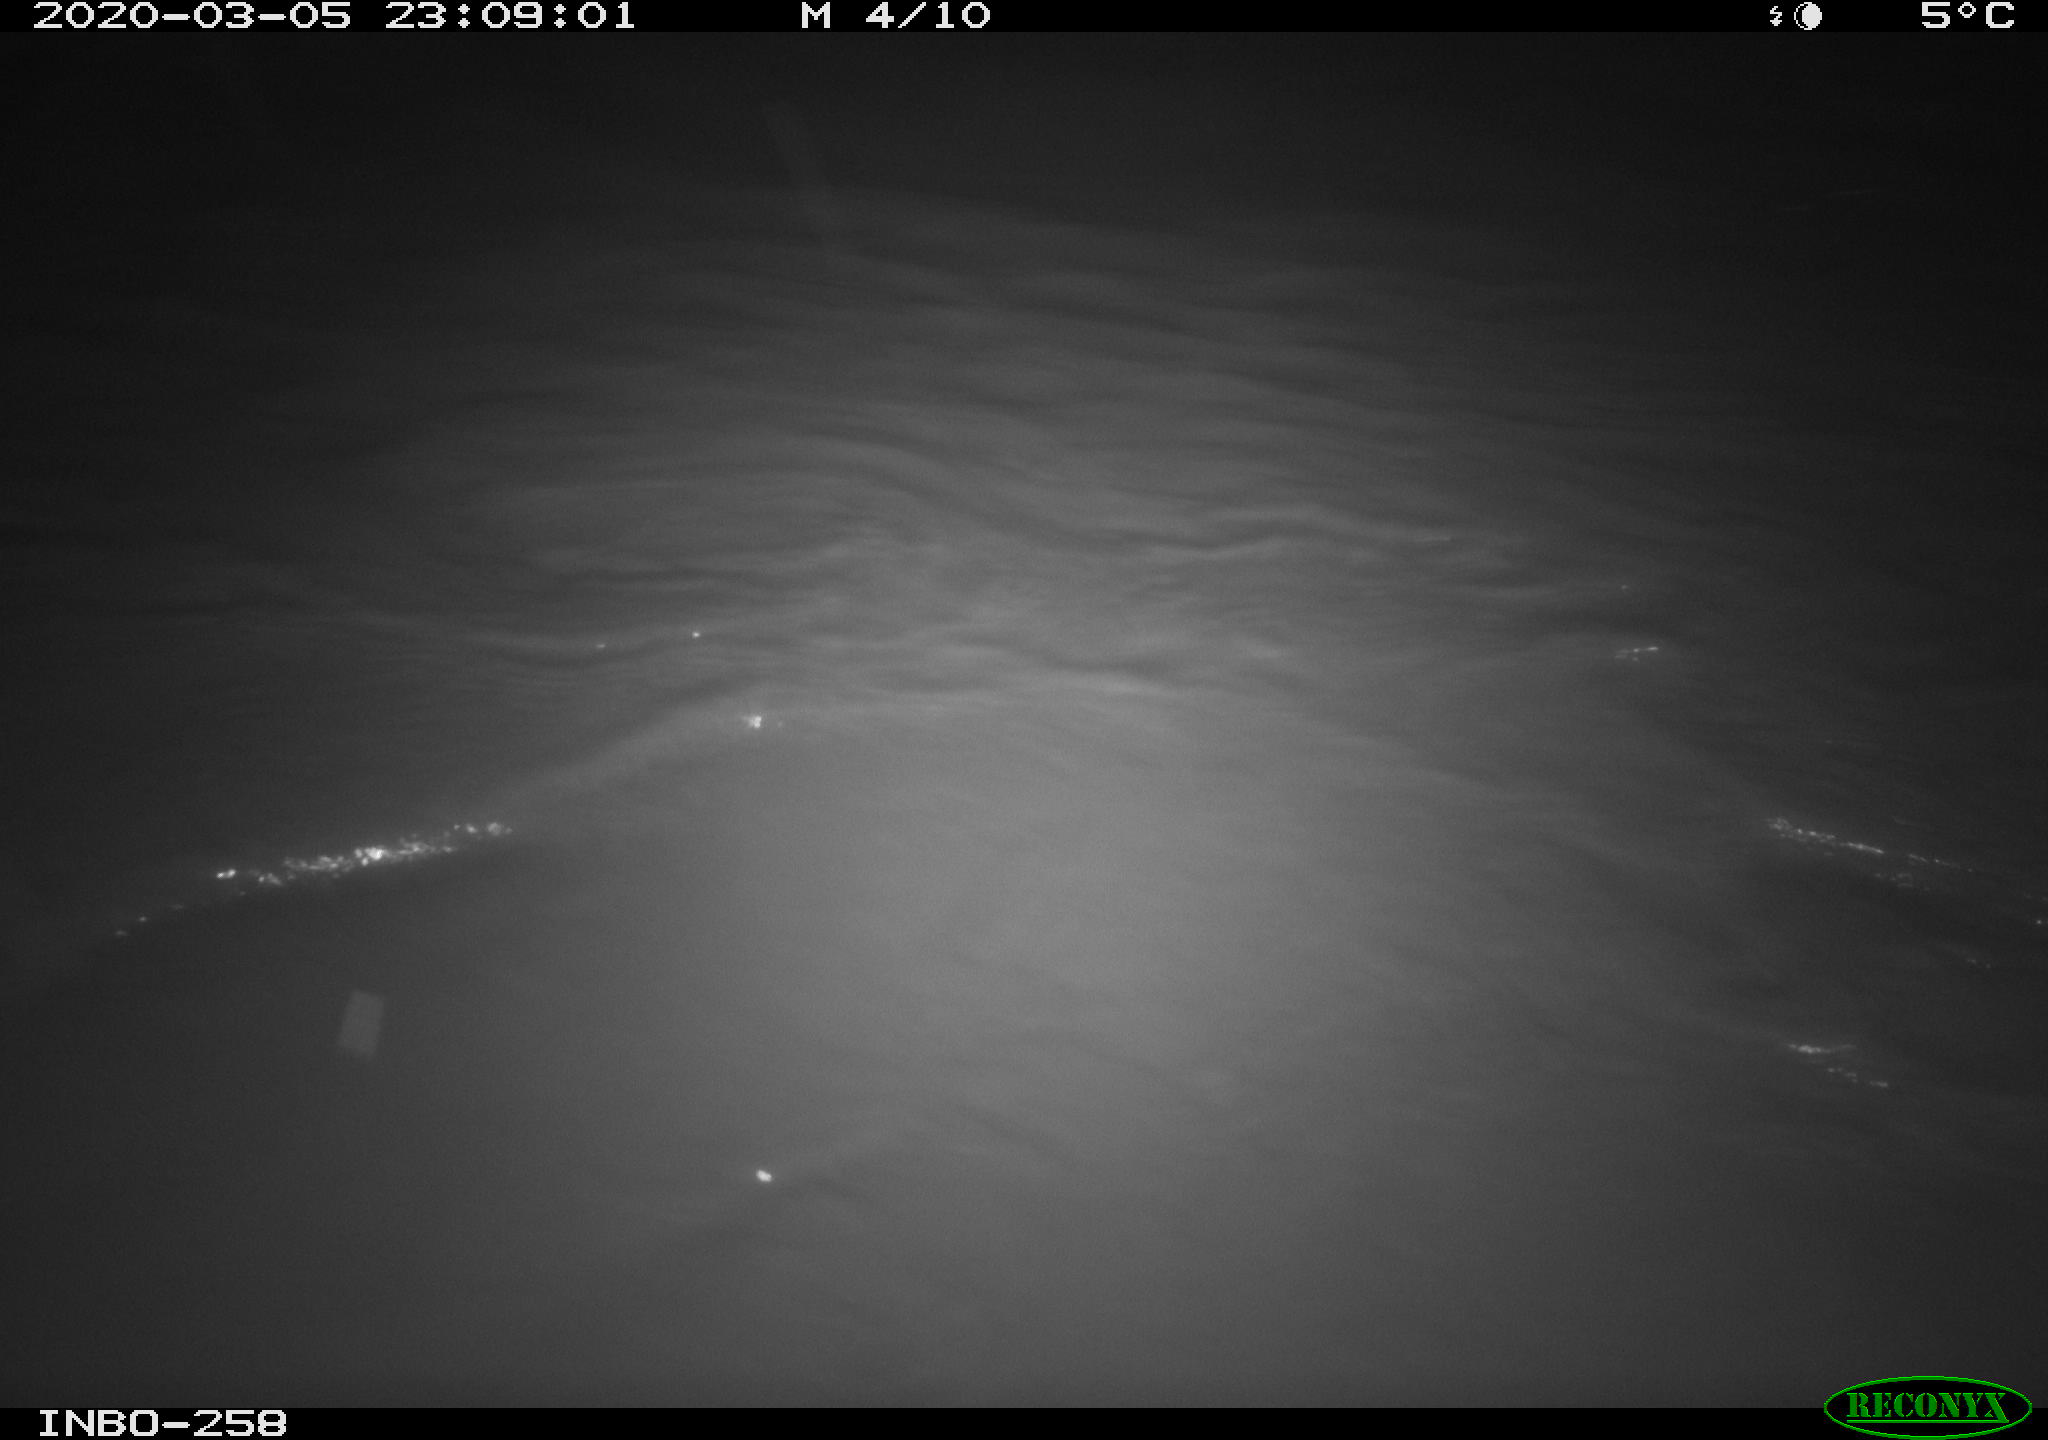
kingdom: Animalia
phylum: Chordata
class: Aves
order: Anseriformes
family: Anatidae
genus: Anas
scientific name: Anas platyrhynchos
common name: Mallard
